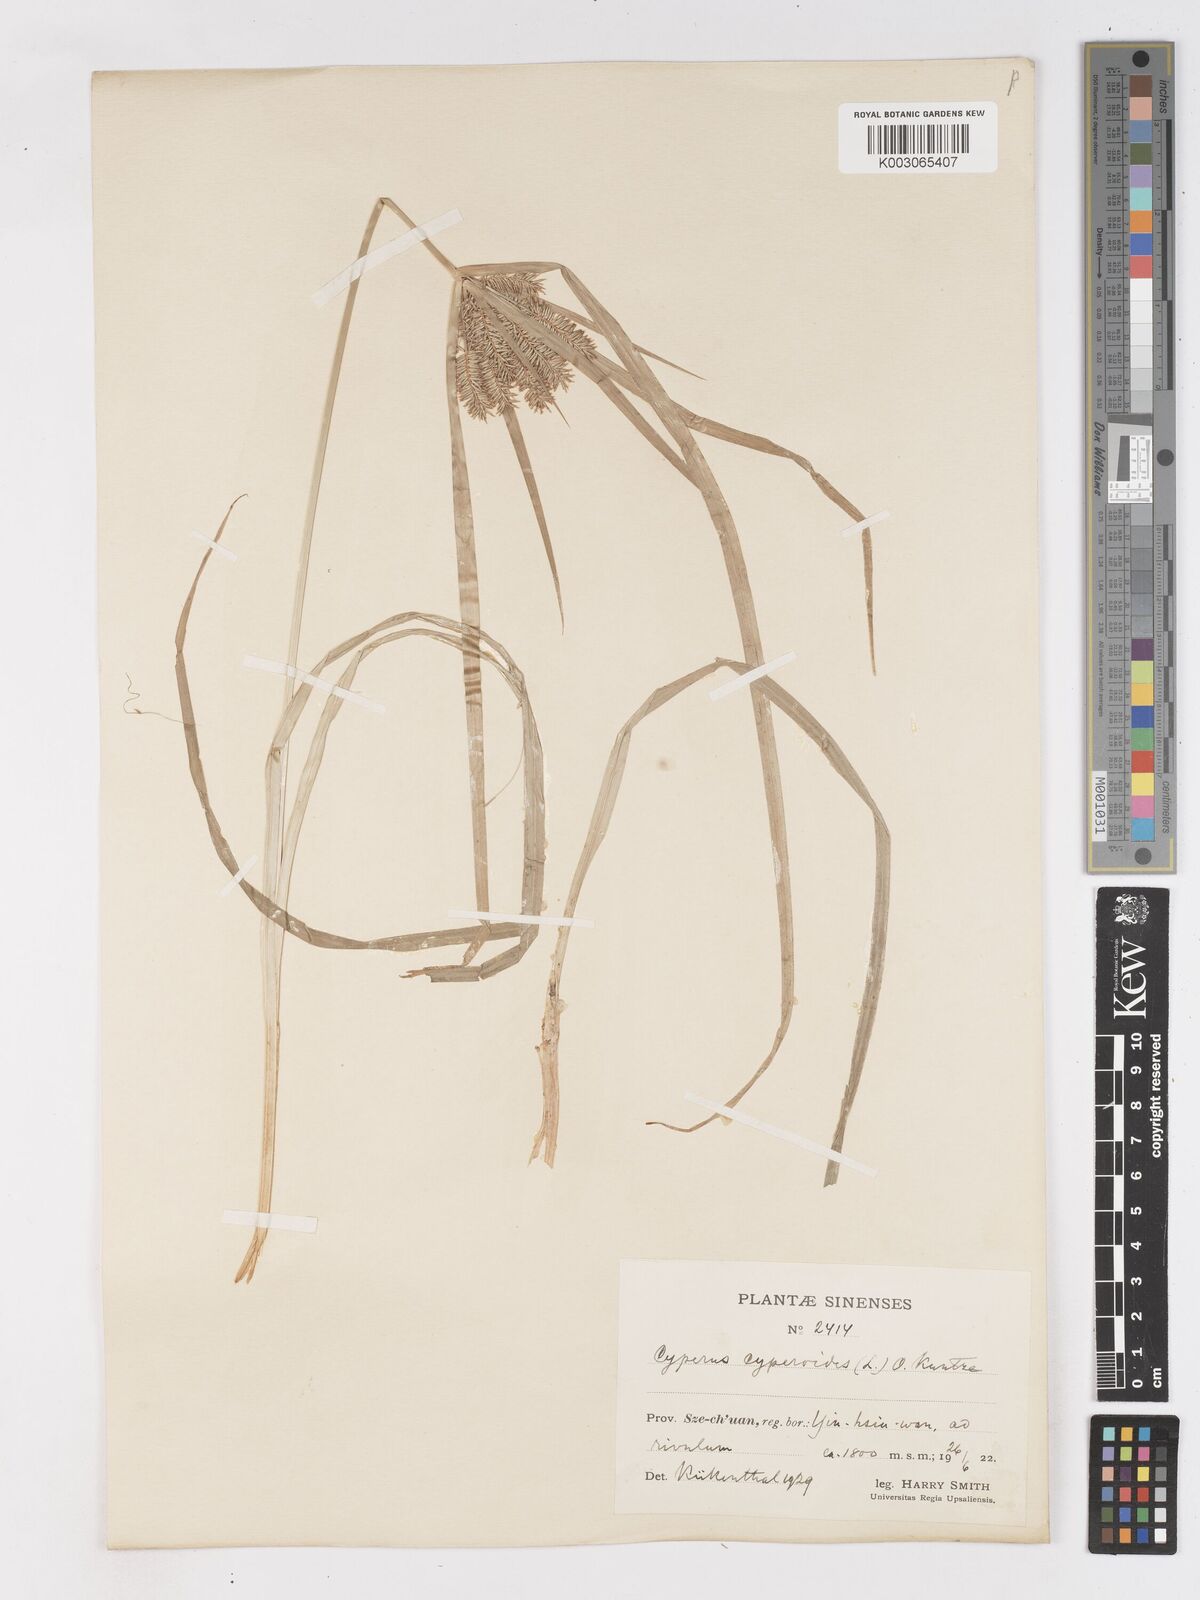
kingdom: Plantae
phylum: Tracheophyta
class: Liliopsida
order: Poales
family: Cyperaceae
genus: Cyperus
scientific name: Cyperus cyperoides
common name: Pacific island flat sedge
